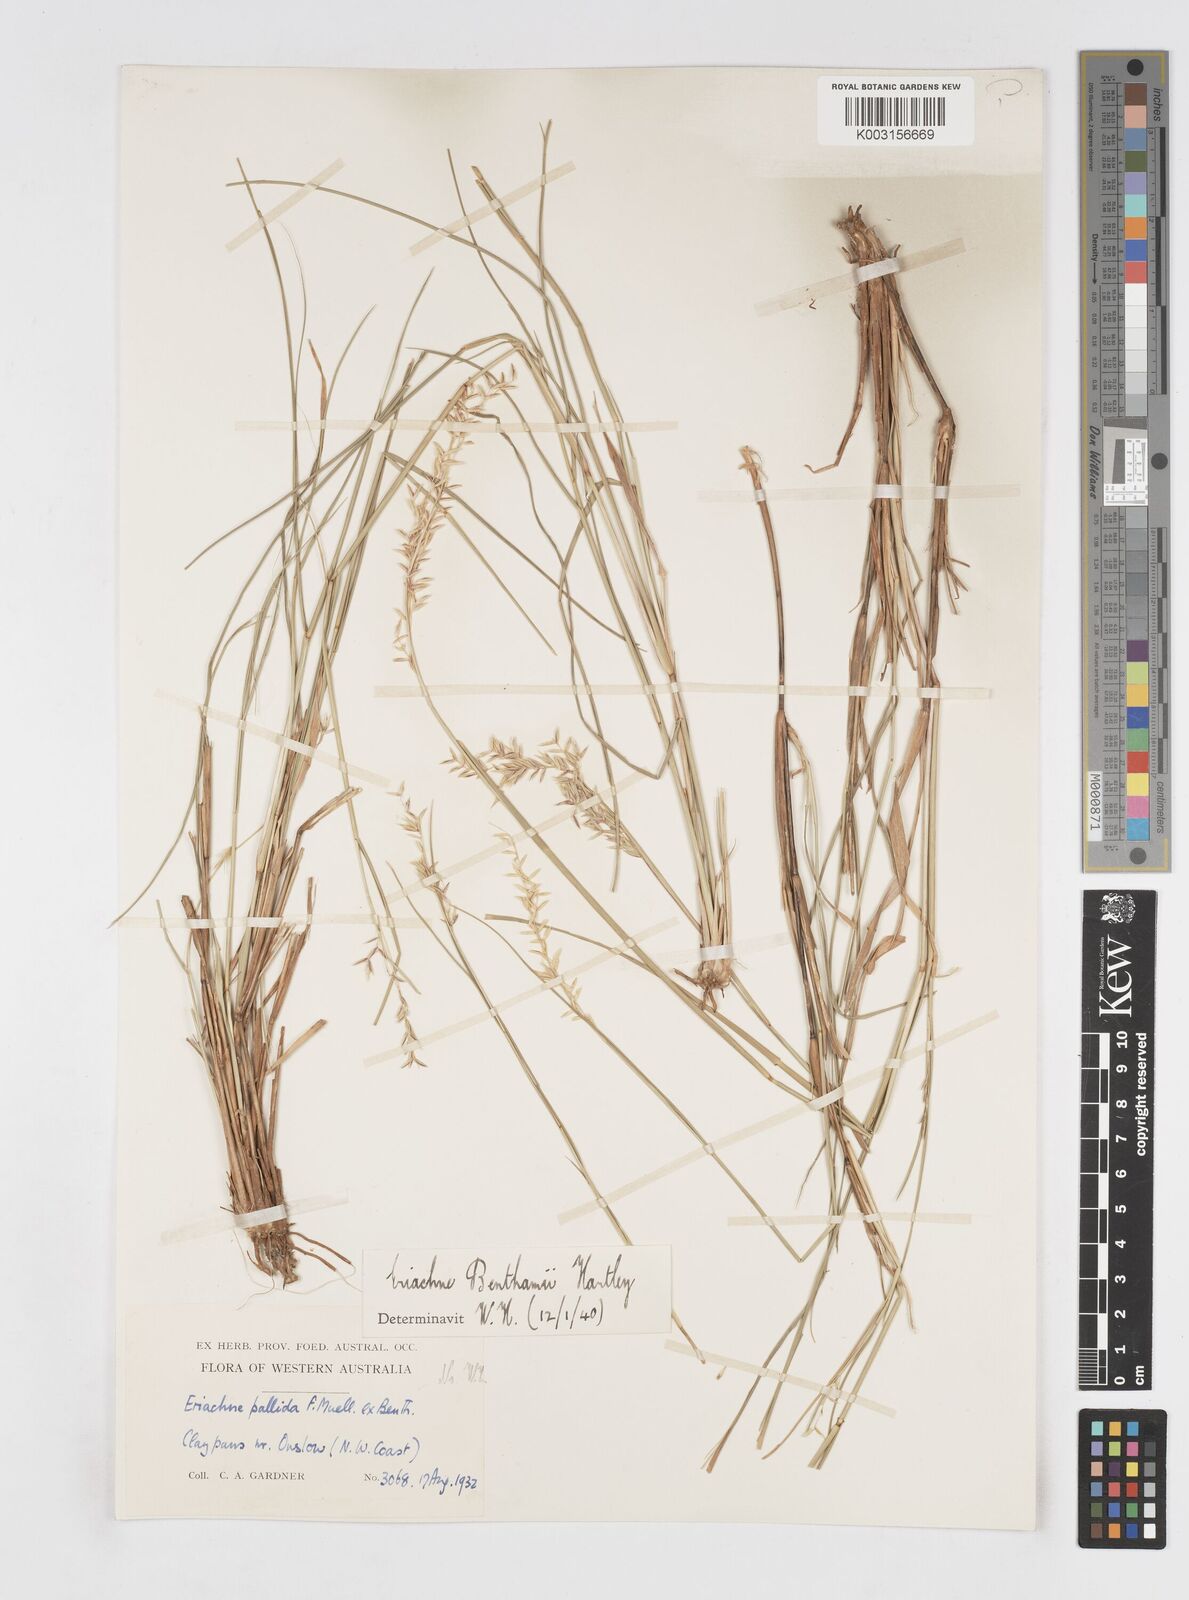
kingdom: Plantae
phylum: Tracheophyta
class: Liliopsida
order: Poales
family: Poaceae
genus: Eriachne
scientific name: Eriachne benthamii
